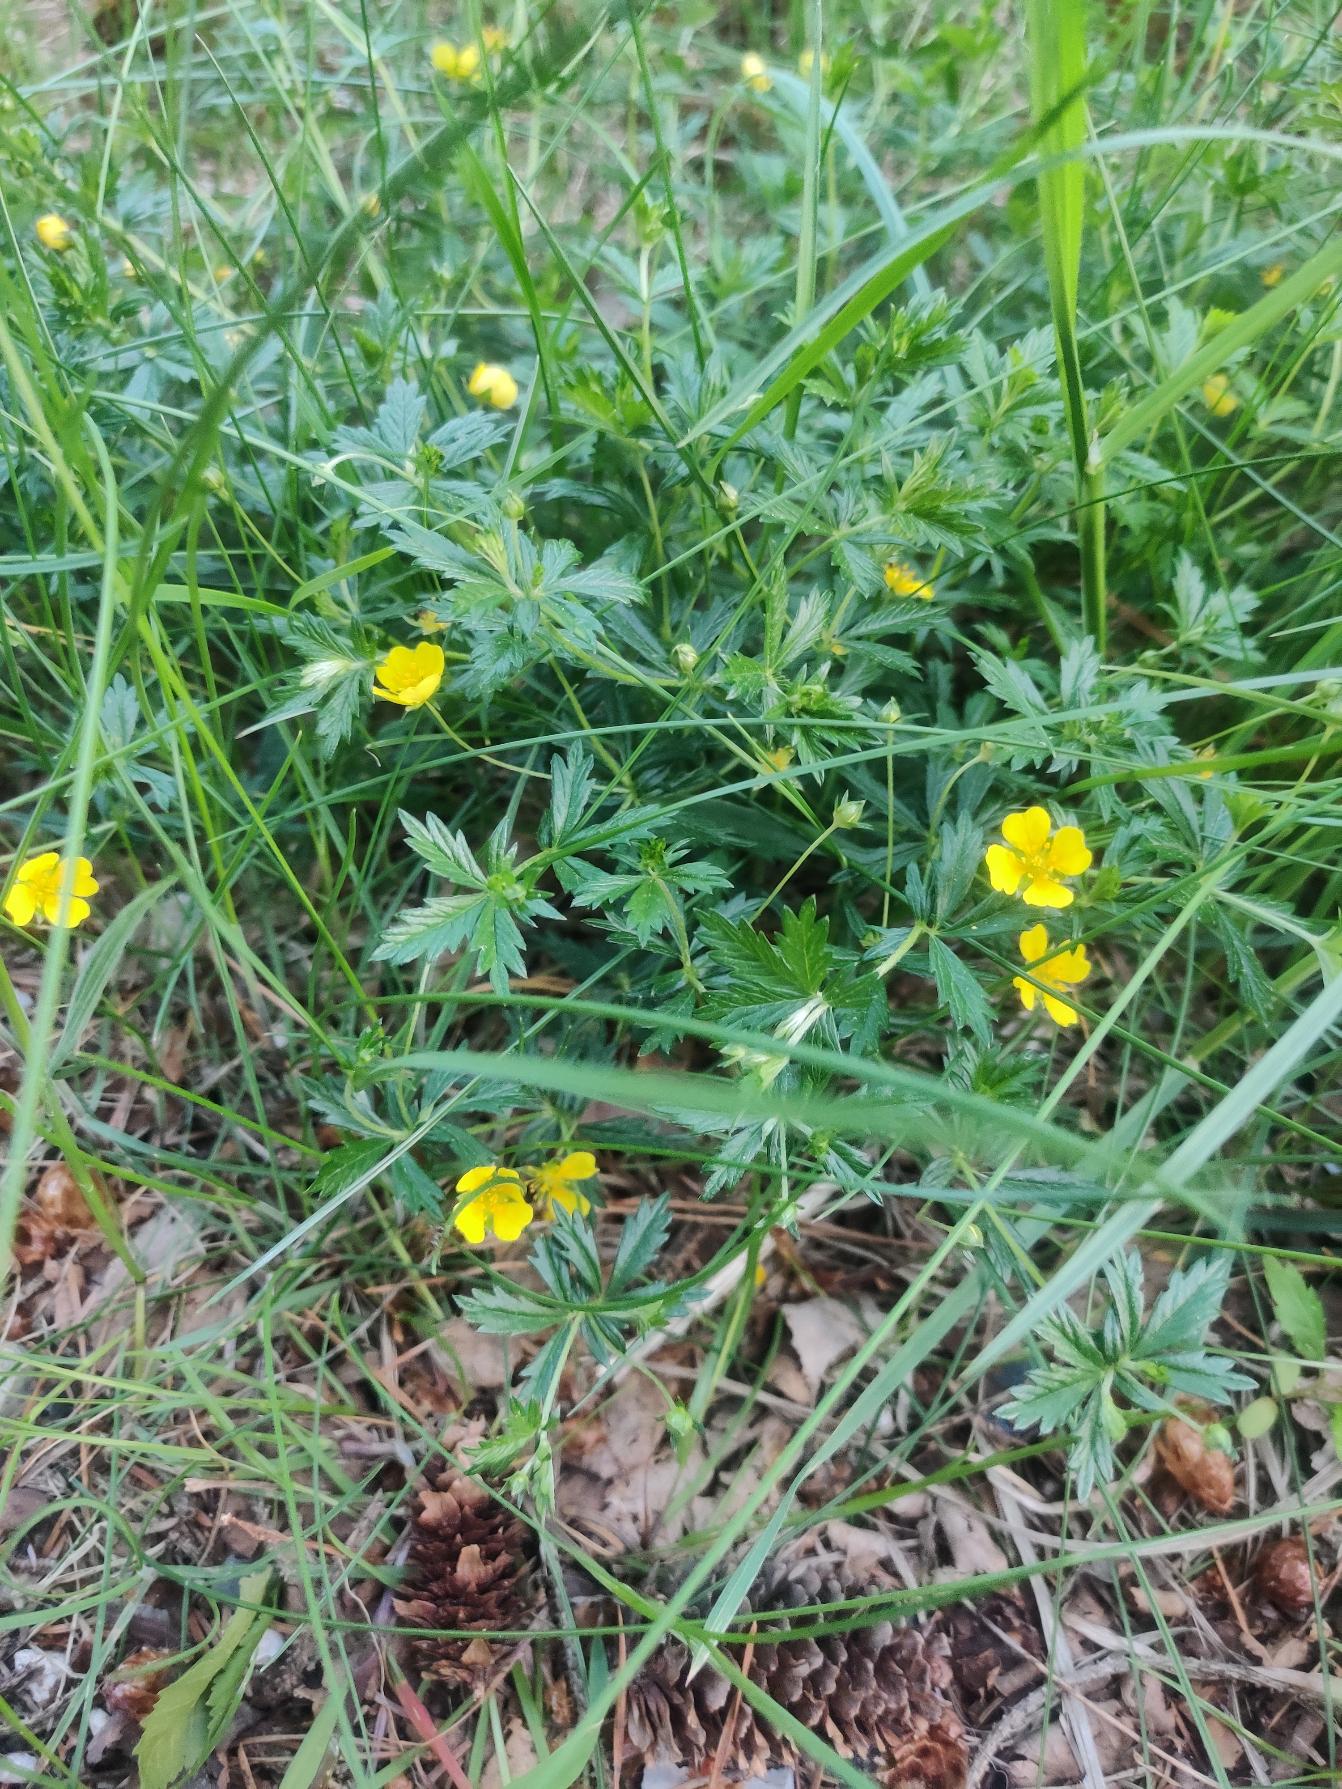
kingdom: Plantae
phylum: Tracheophyta
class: Magnoliopsida
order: Rosales
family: Rosaceae
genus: Potentilla
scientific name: Potentilla erecta
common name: Tormentil
